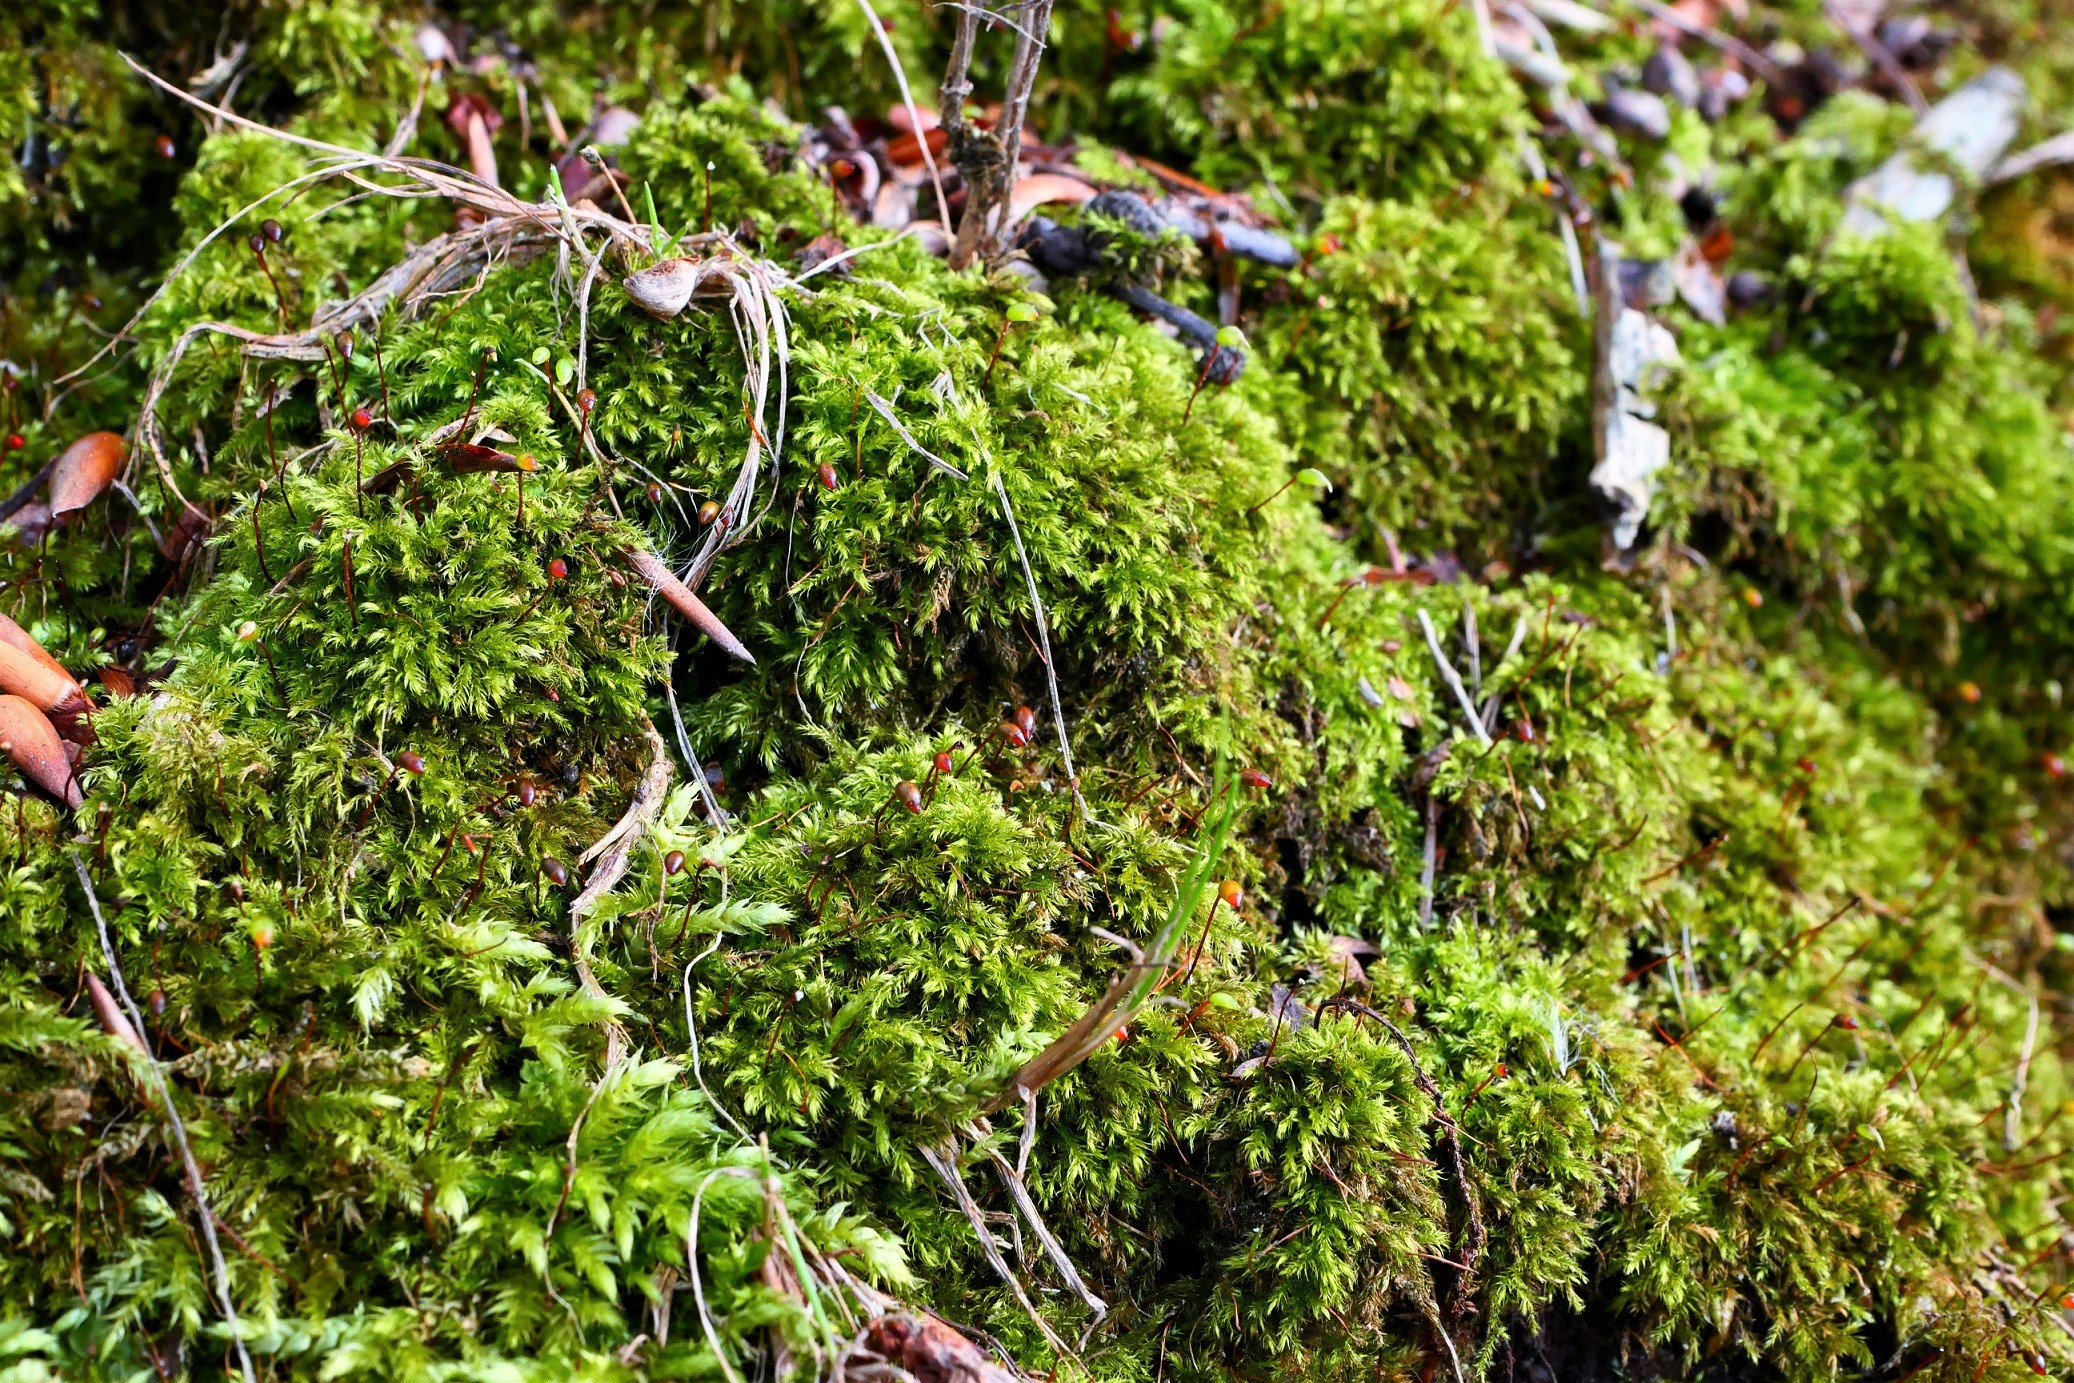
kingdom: Plantae
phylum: Bryophyta
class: Bryopsida
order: Hypnales
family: Brachytheciaceae
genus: Brachytheciastrum
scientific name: Brachytheciastrum velutinum
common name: Fløjls-kortkapsel
